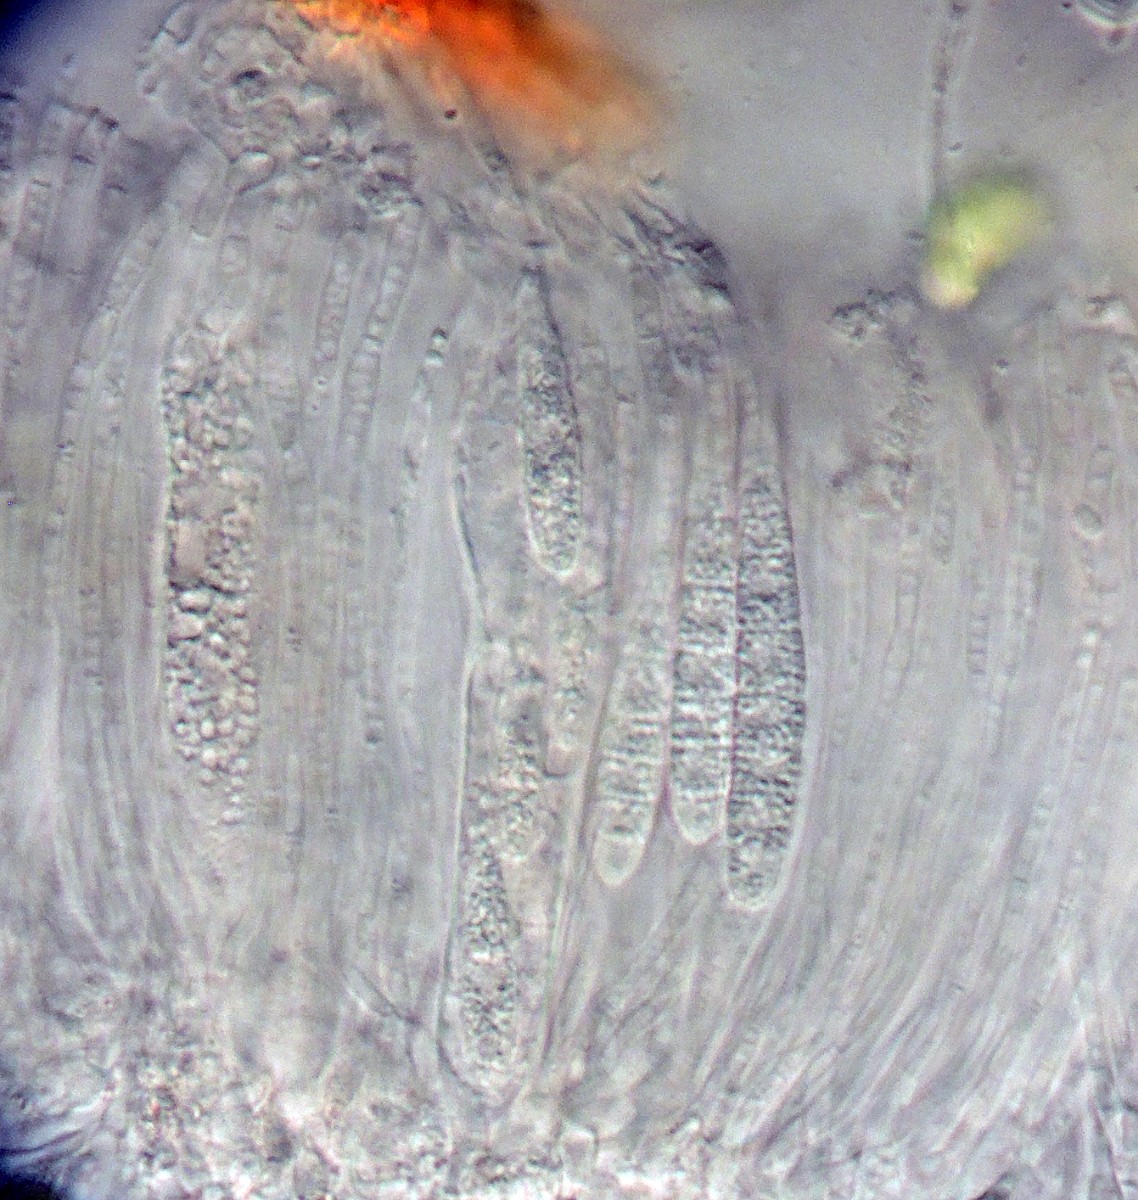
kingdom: Fungi
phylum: Ascomycota
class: Lecanoromycetes
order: Ostropales
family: Stictidaceae
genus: Karstenia
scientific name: Karstenia rhopaloides
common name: grårosa barkhul
